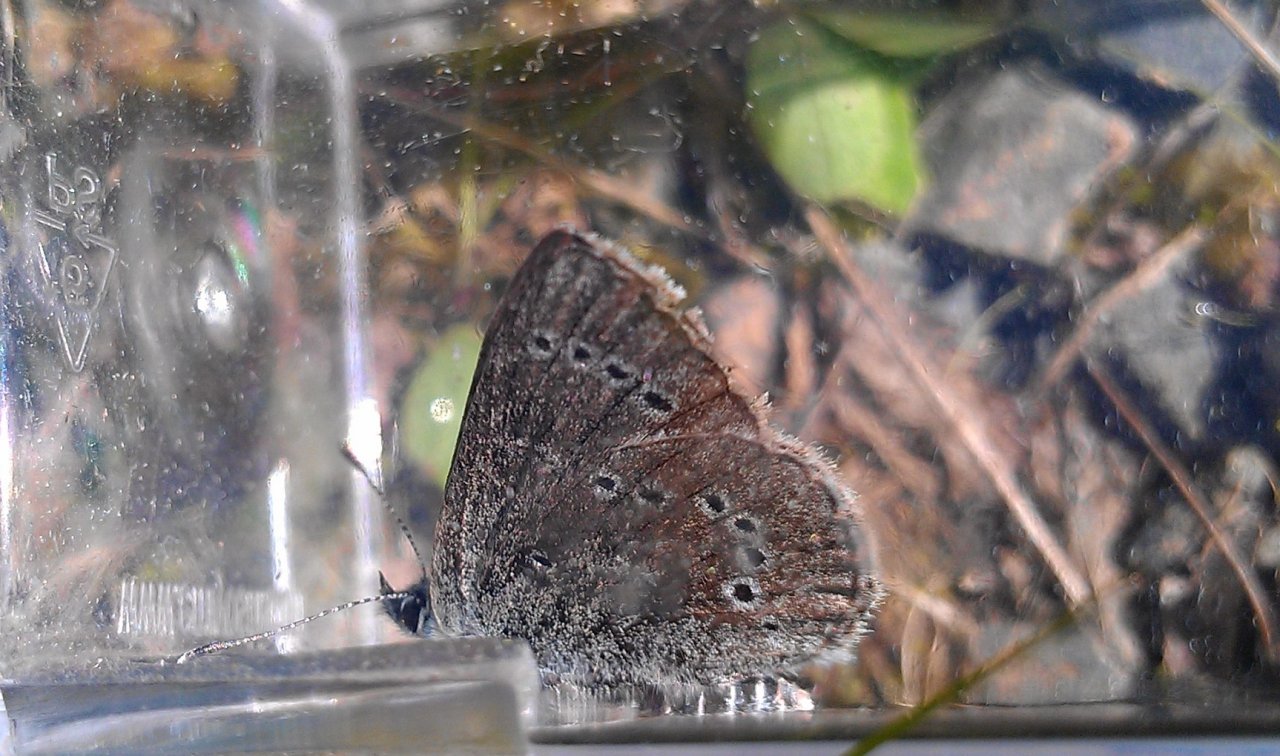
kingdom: Animalia
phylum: Arthropoda
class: Insecta
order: Lepidoptera
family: Lycaenidae
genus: Glaucopsyche
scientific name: Glaucopsyche lygdamus
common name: Silvery Blue
